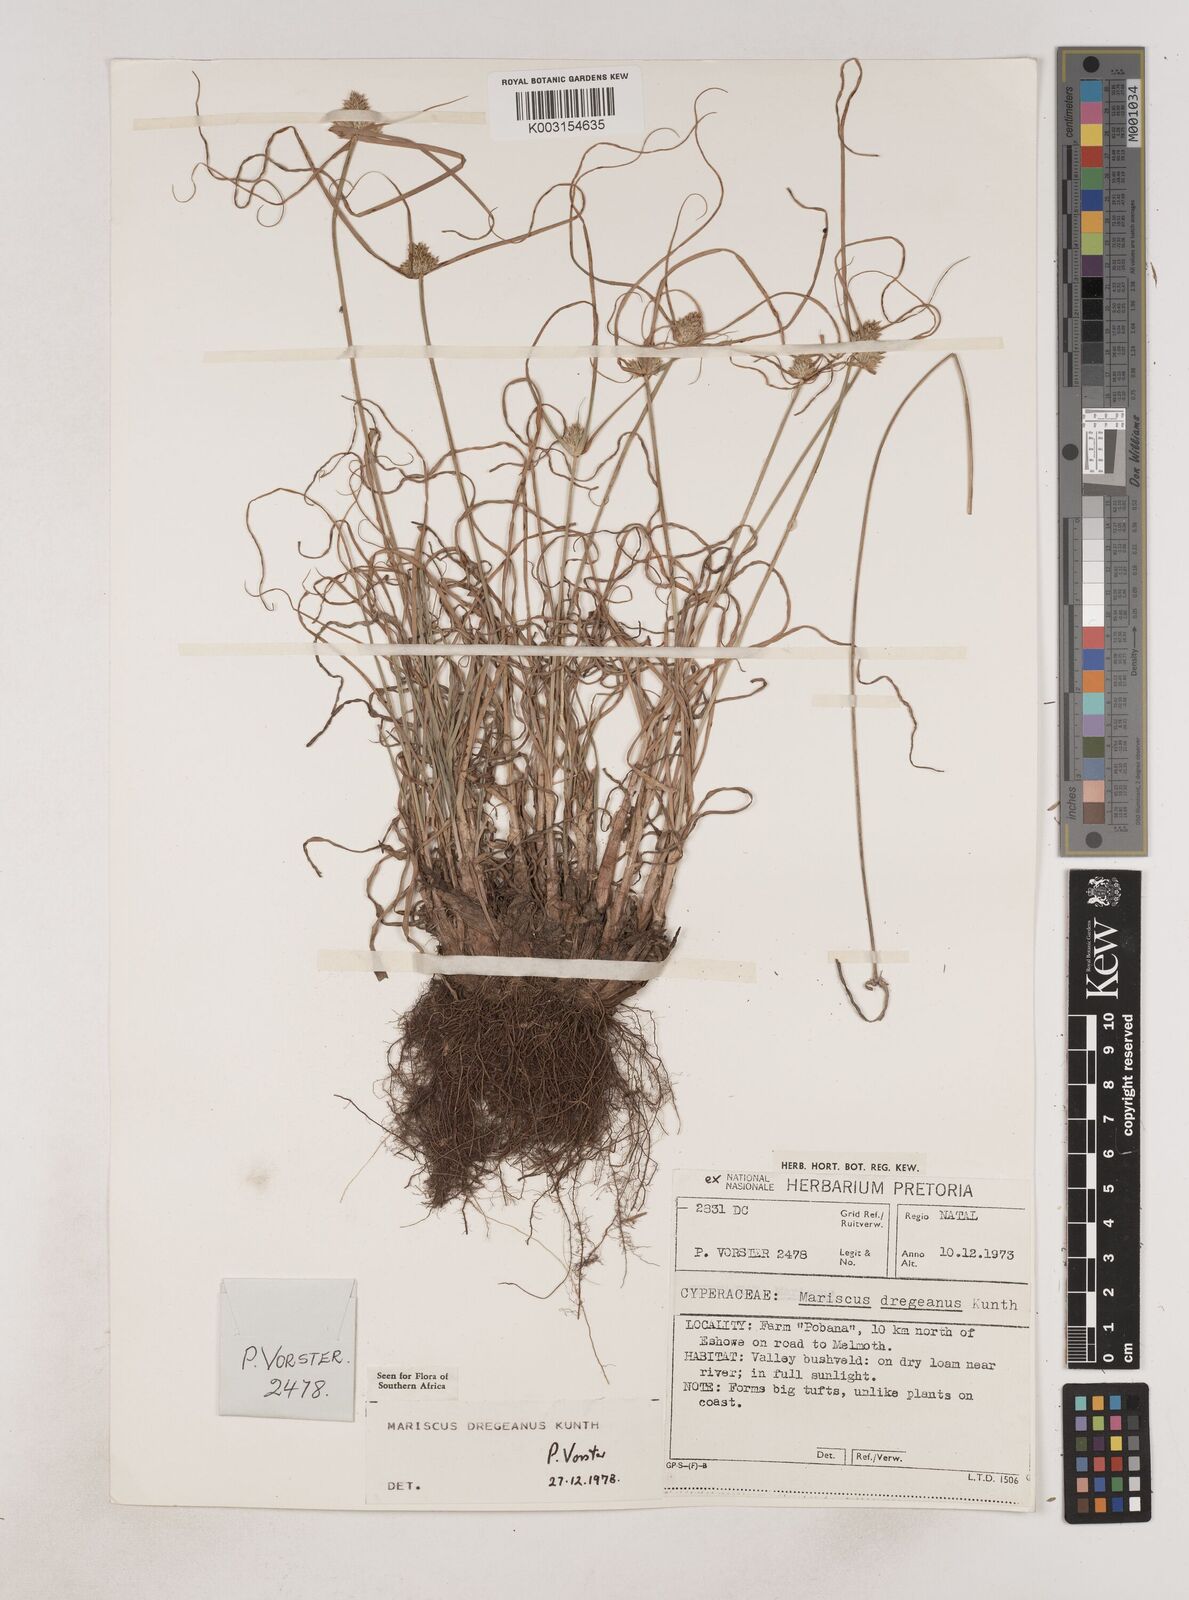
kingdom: Plantae
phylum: Tracheophyta
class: Liliopsida
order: Poales
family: Cyperaceae
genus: Cyperus
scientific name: Cyperus dubius
